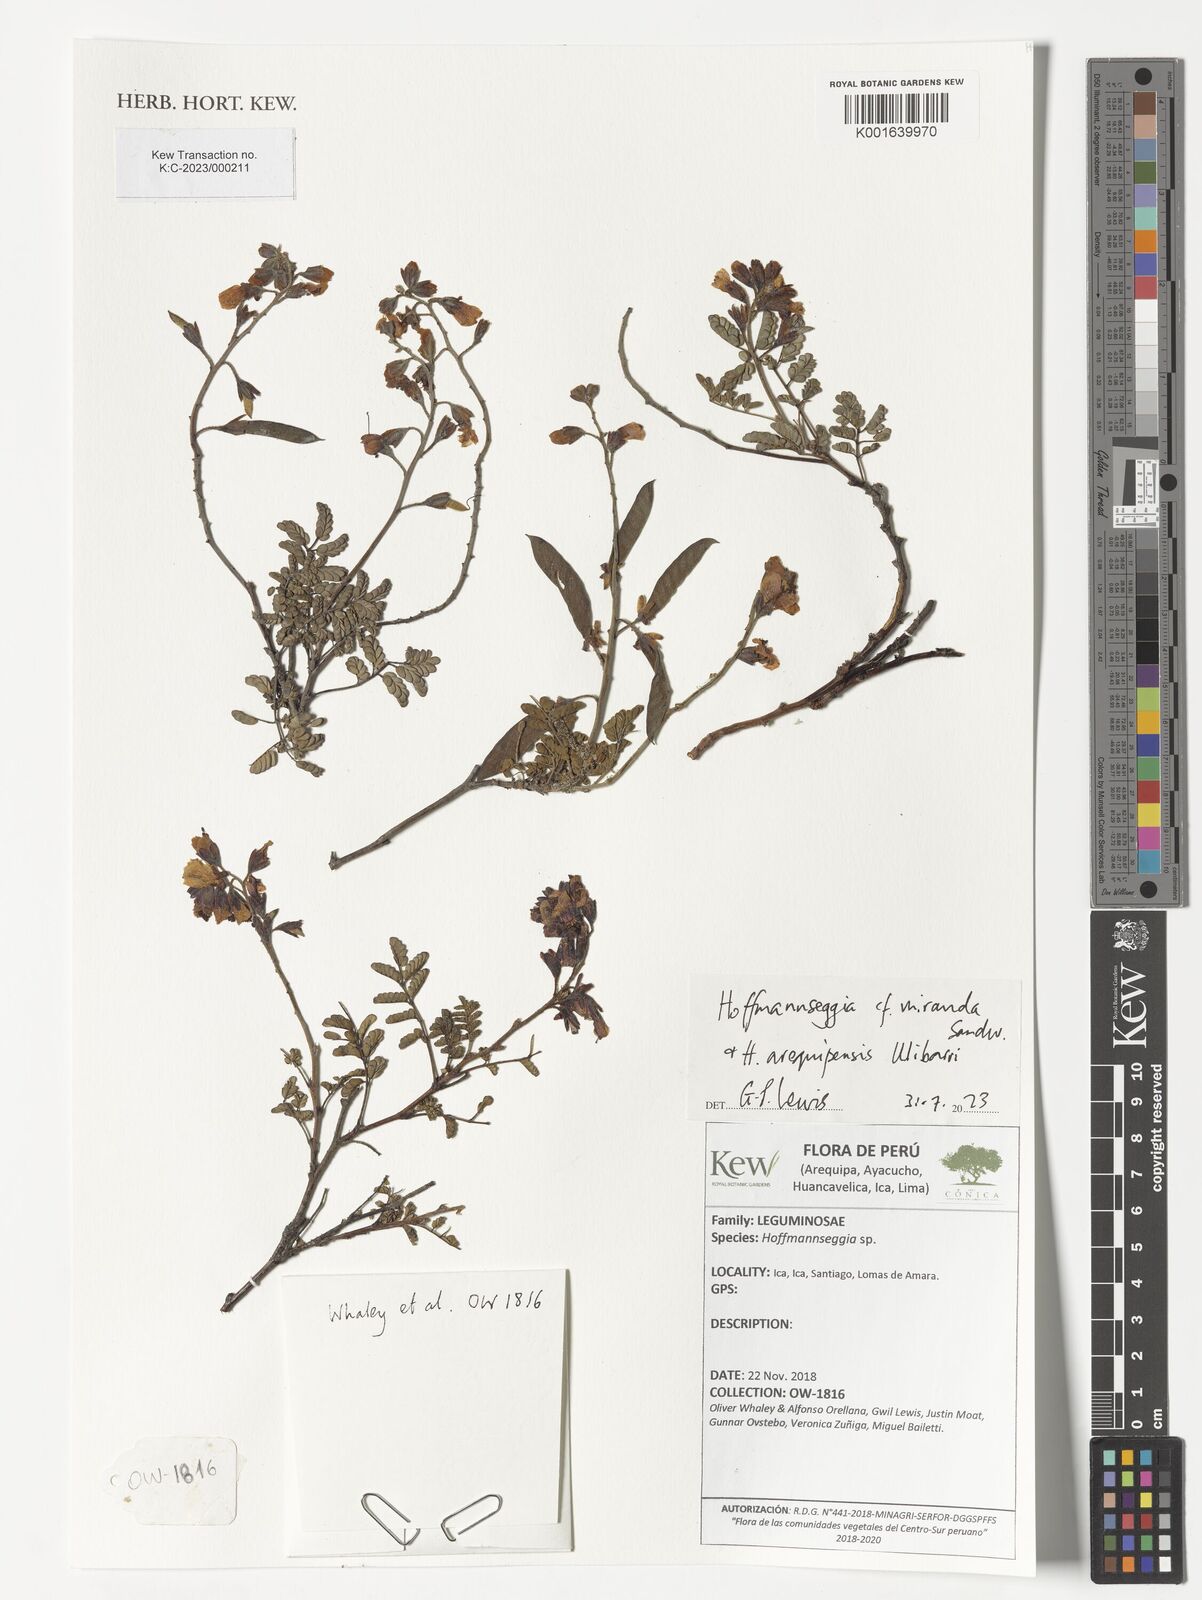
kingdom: Plantae
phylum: Tracheophyta
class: Magnoliopsida
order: Fabales
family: Fabaceae
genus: Hoffmannseggia
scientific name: Hoffmannseggia miranda
